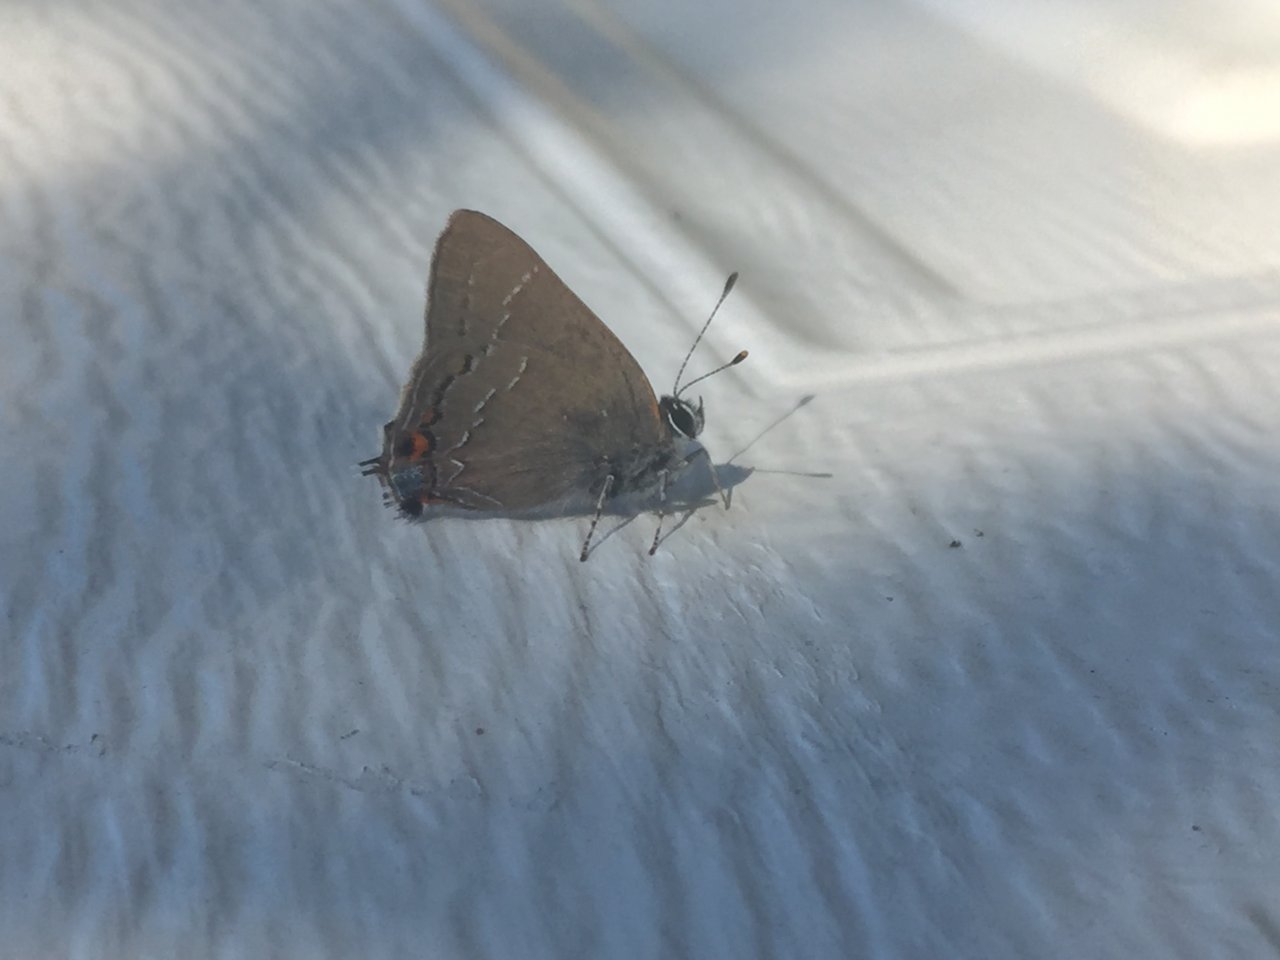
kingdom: Animalia
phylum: Arthropoda
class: Insecta
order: Lepidoptera
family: Lycaenidae
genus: Strymon
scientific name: Strymon melinus
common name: Gray Hairstreak
